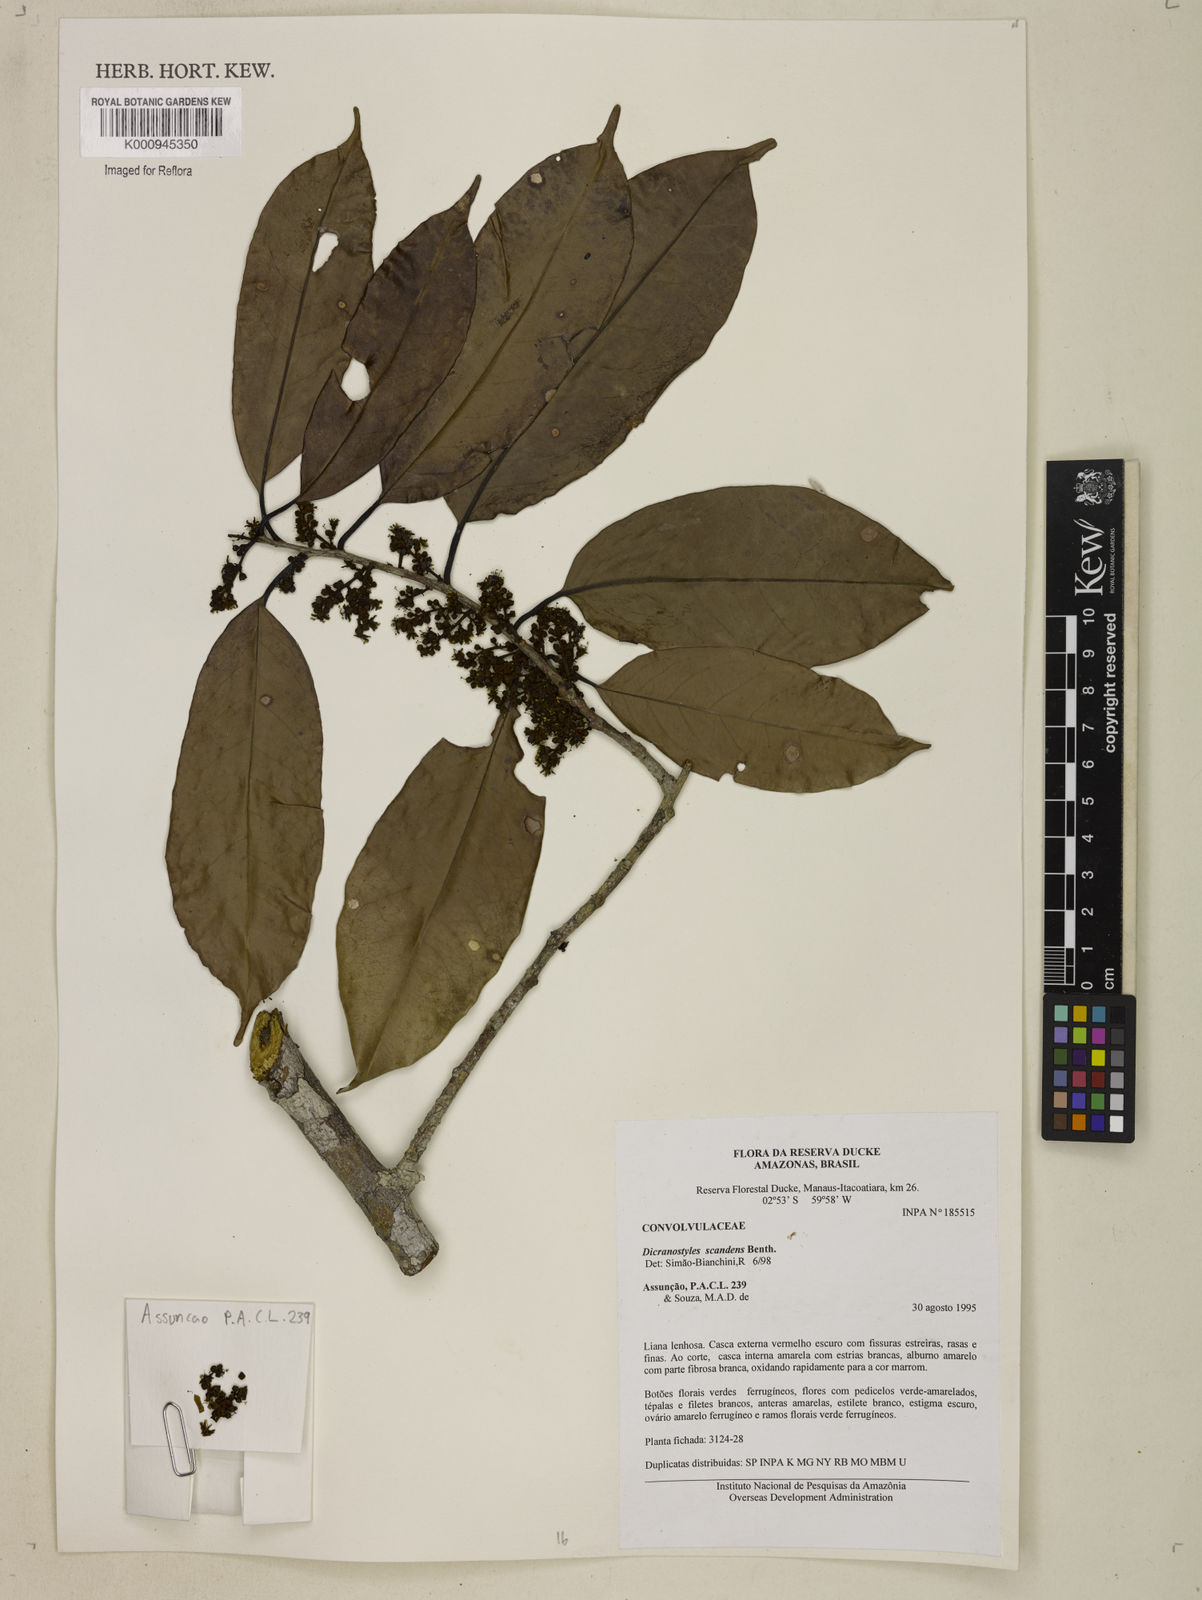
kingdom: Plantae
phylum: Tracheophyta
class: Magnoliopsida
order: Solanales
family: Convolvulaceae
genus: Dicranostyles
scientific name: Dicranostyles scandens
